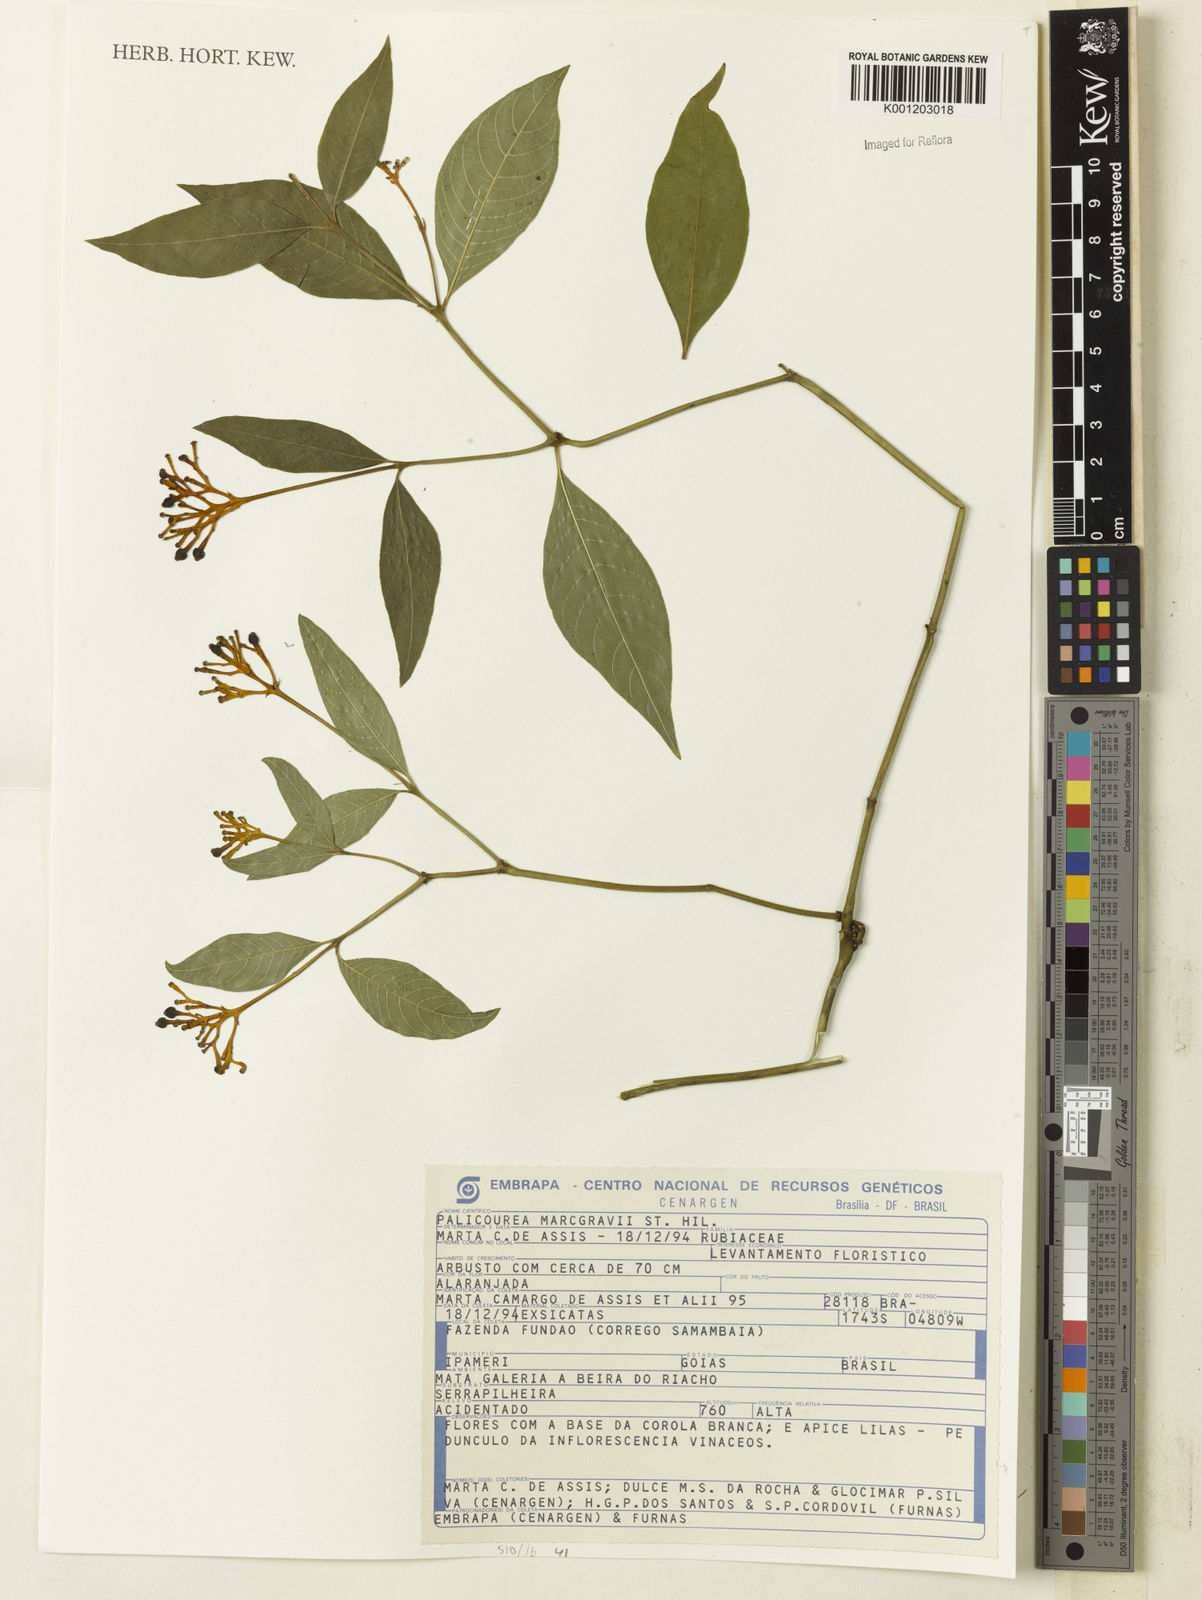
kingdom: Plantae
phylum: Tracheophyta
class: Magnoliopsida
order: Gentianales
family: Rubiaceae
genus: Palicourea
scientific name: Palicourea marcgravii
